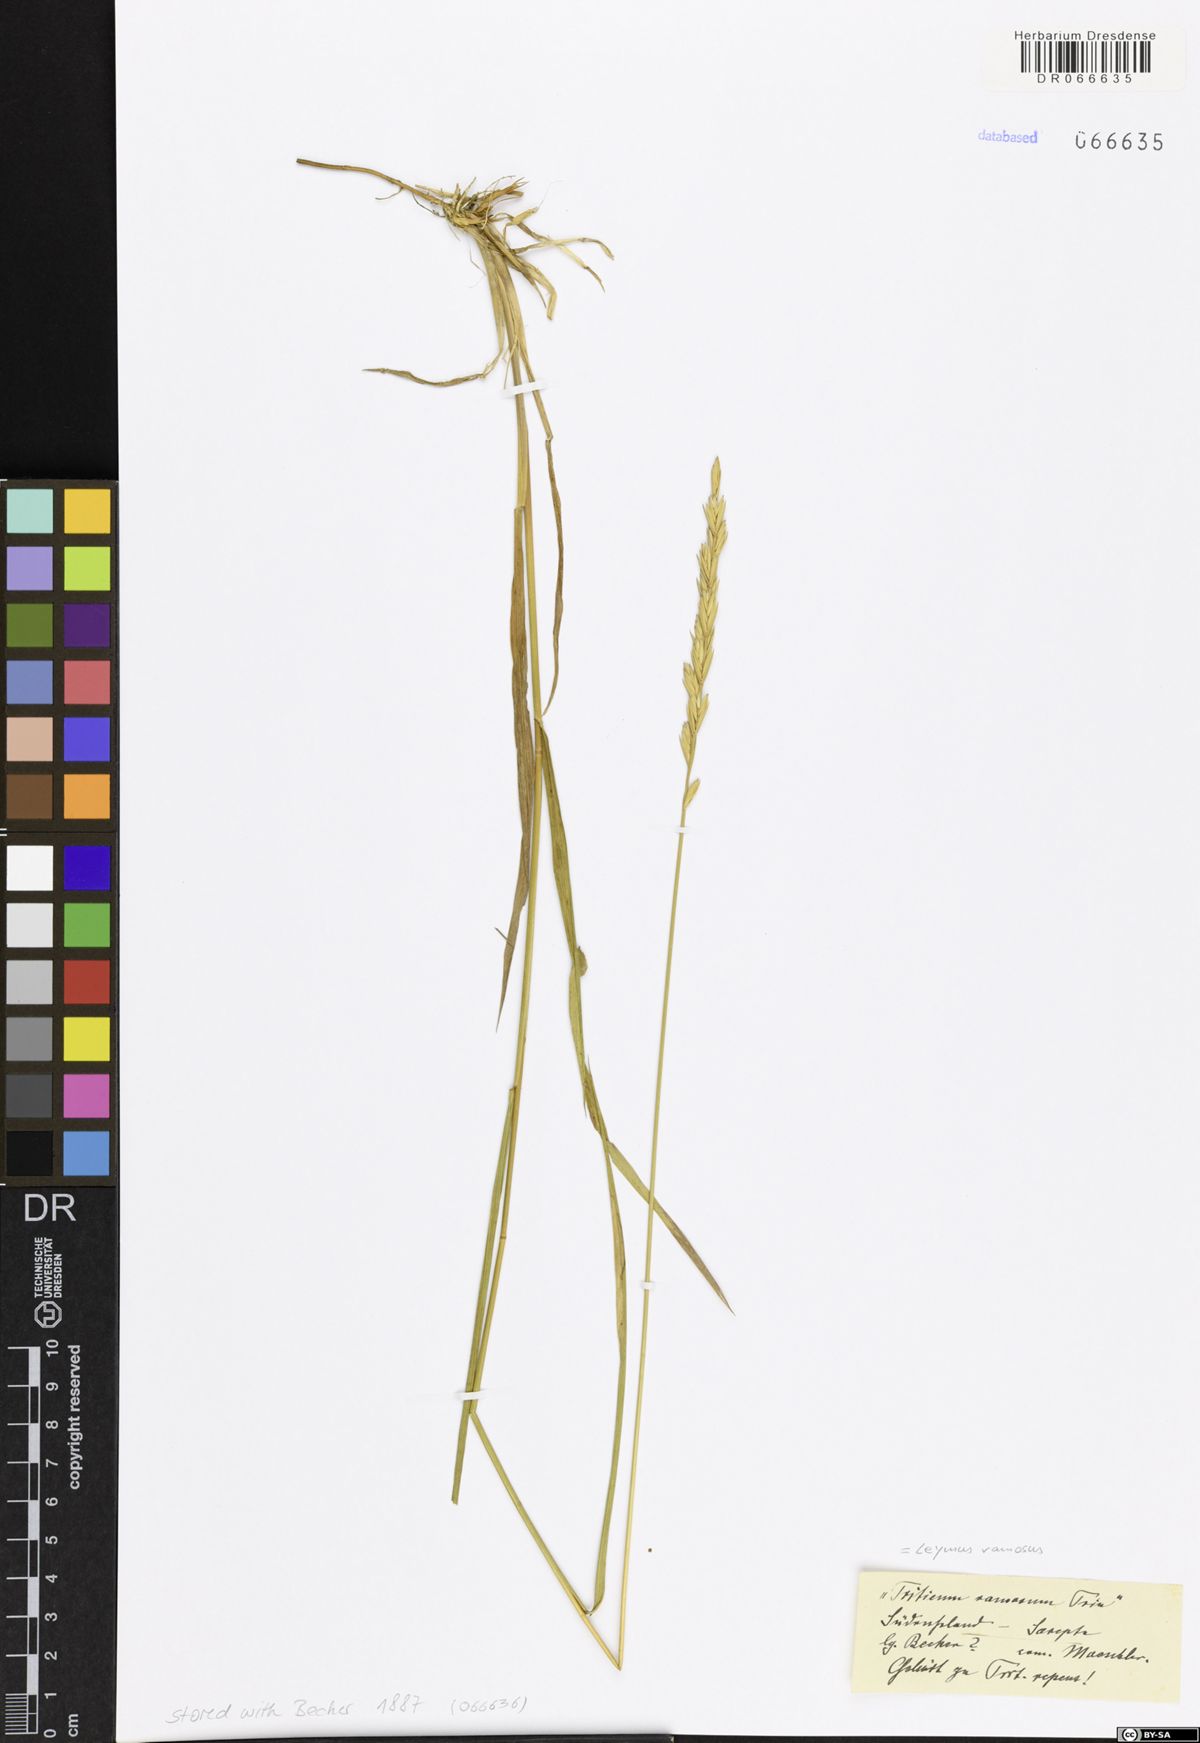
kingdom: Plantae
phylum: Tracheophyta
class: Liliopsida
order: Poales
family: Poaceae
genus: Leymus
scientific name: Leymus ramosus
